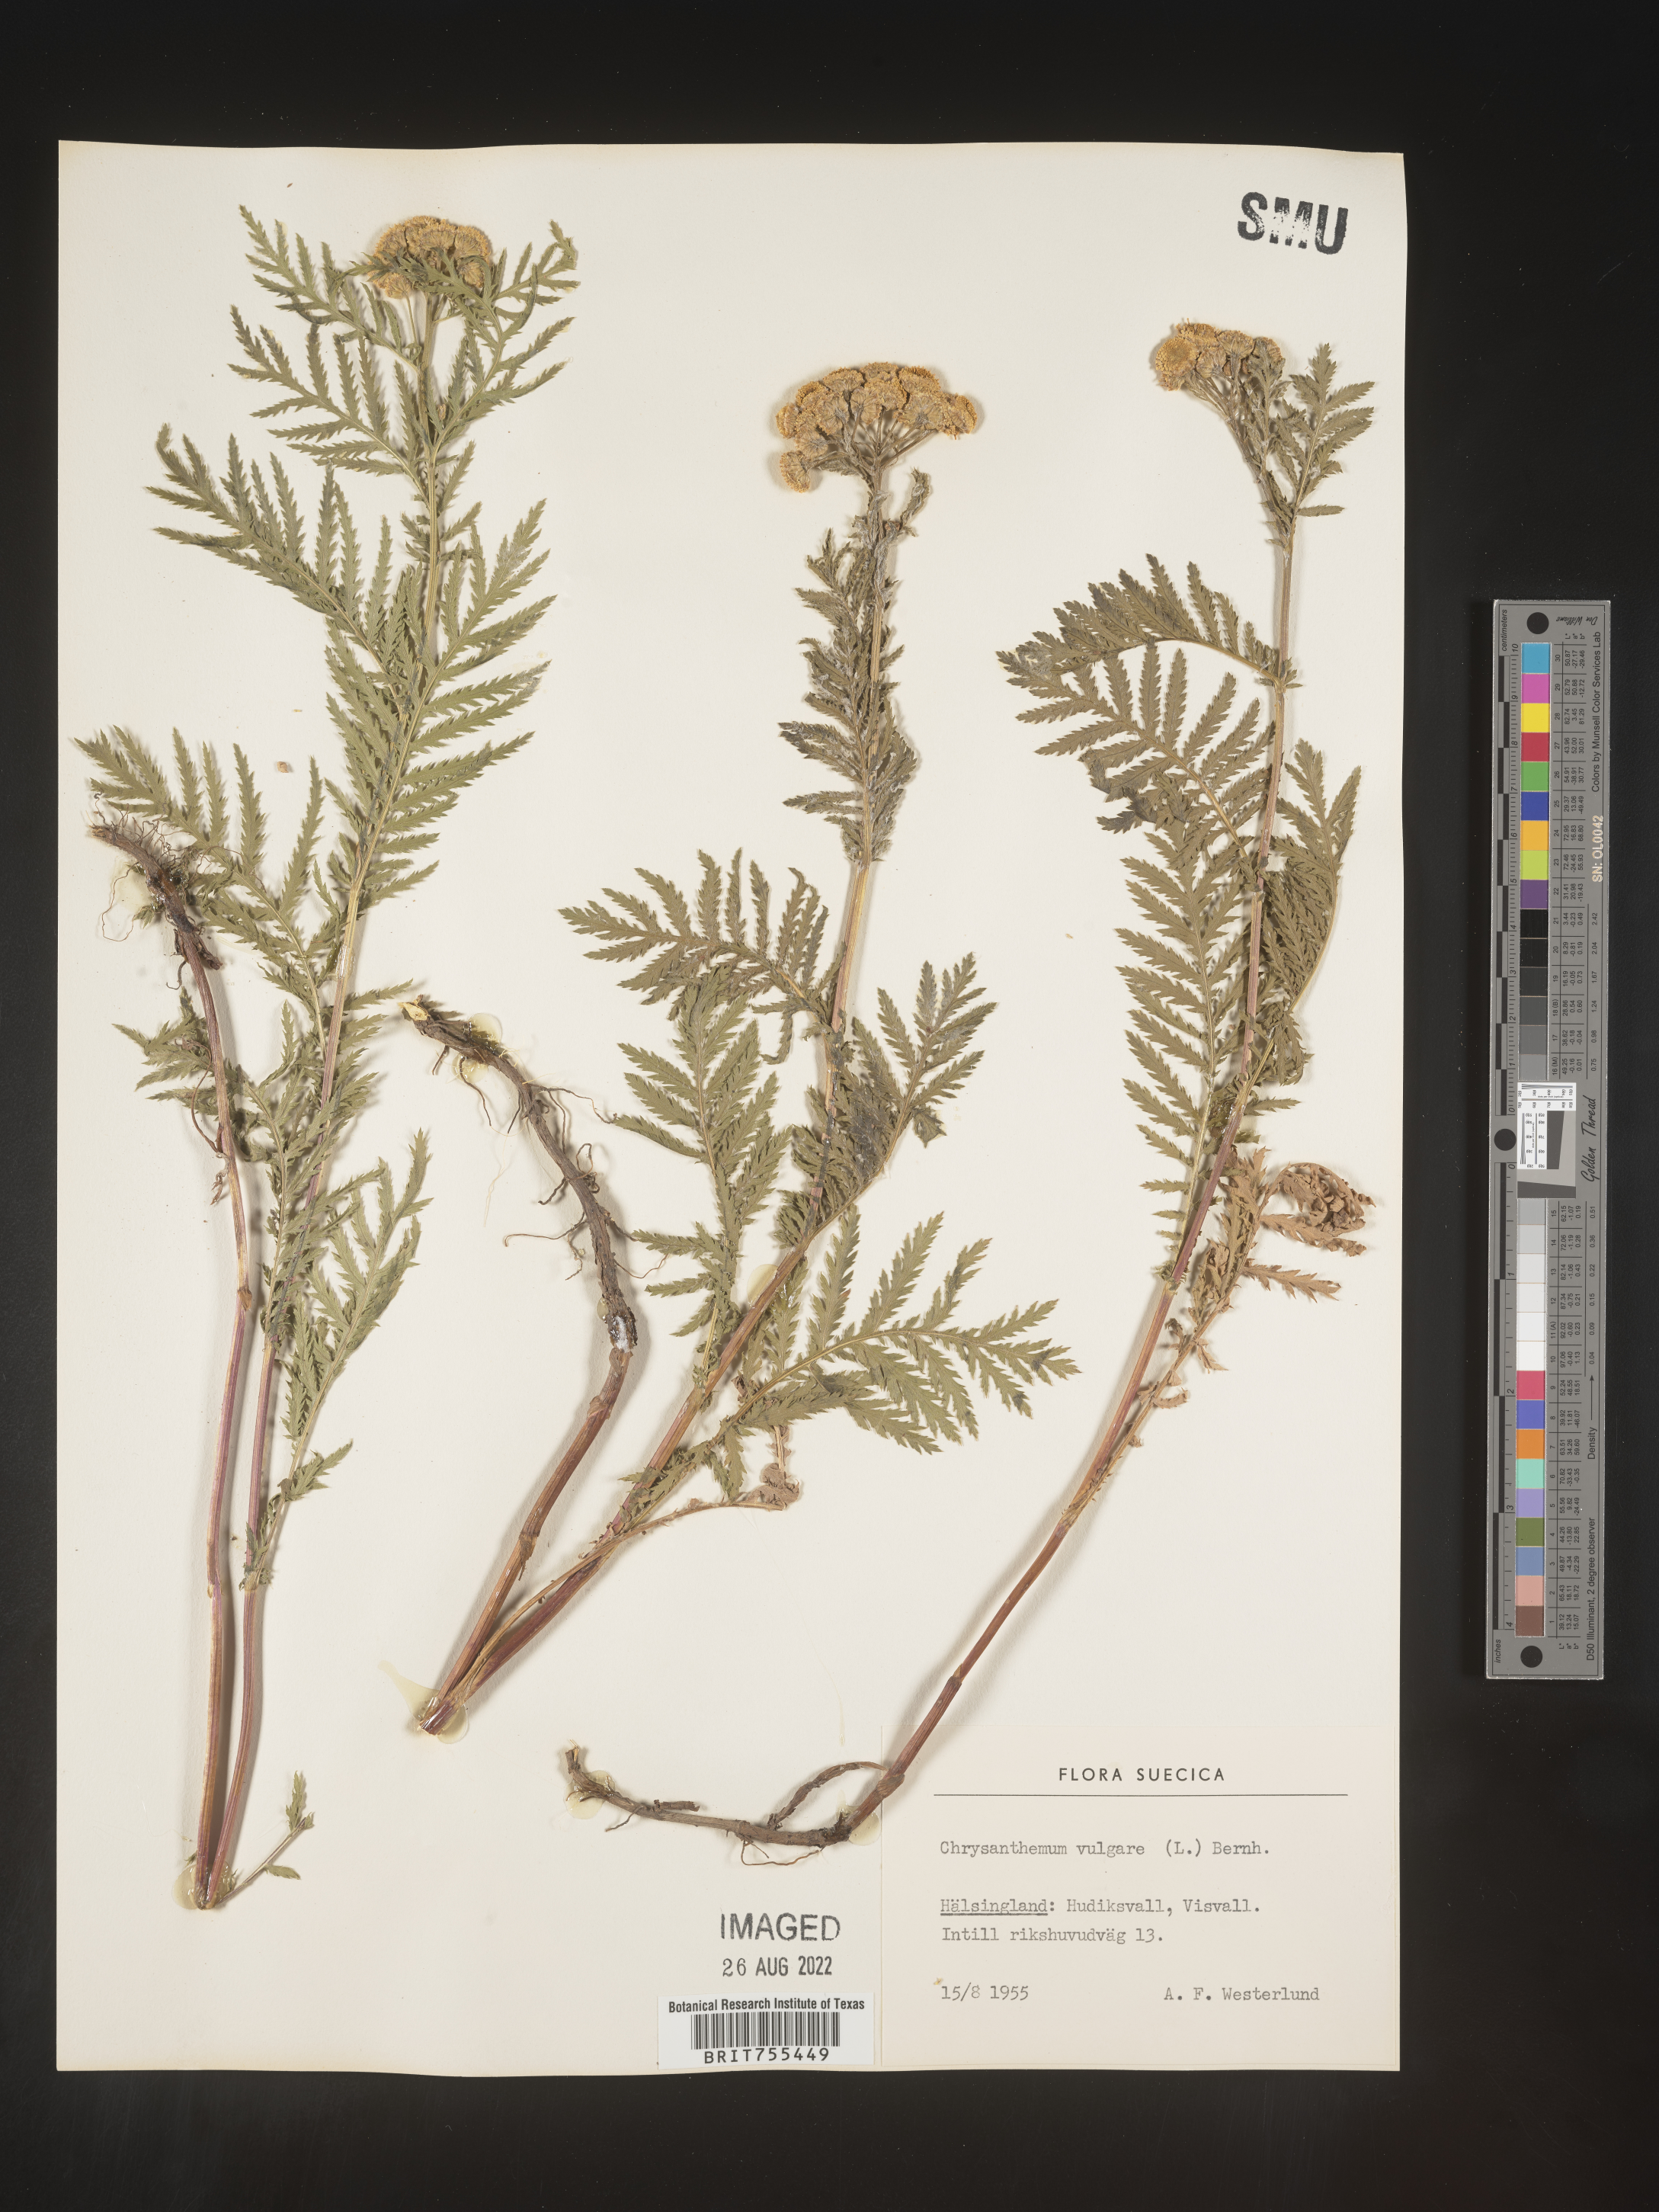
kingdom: Plantae
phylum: Tracheophyta
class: Magnoliopsida
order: Asterales
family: Asteraceae
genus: Tanacetum
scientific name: Tanacetum
